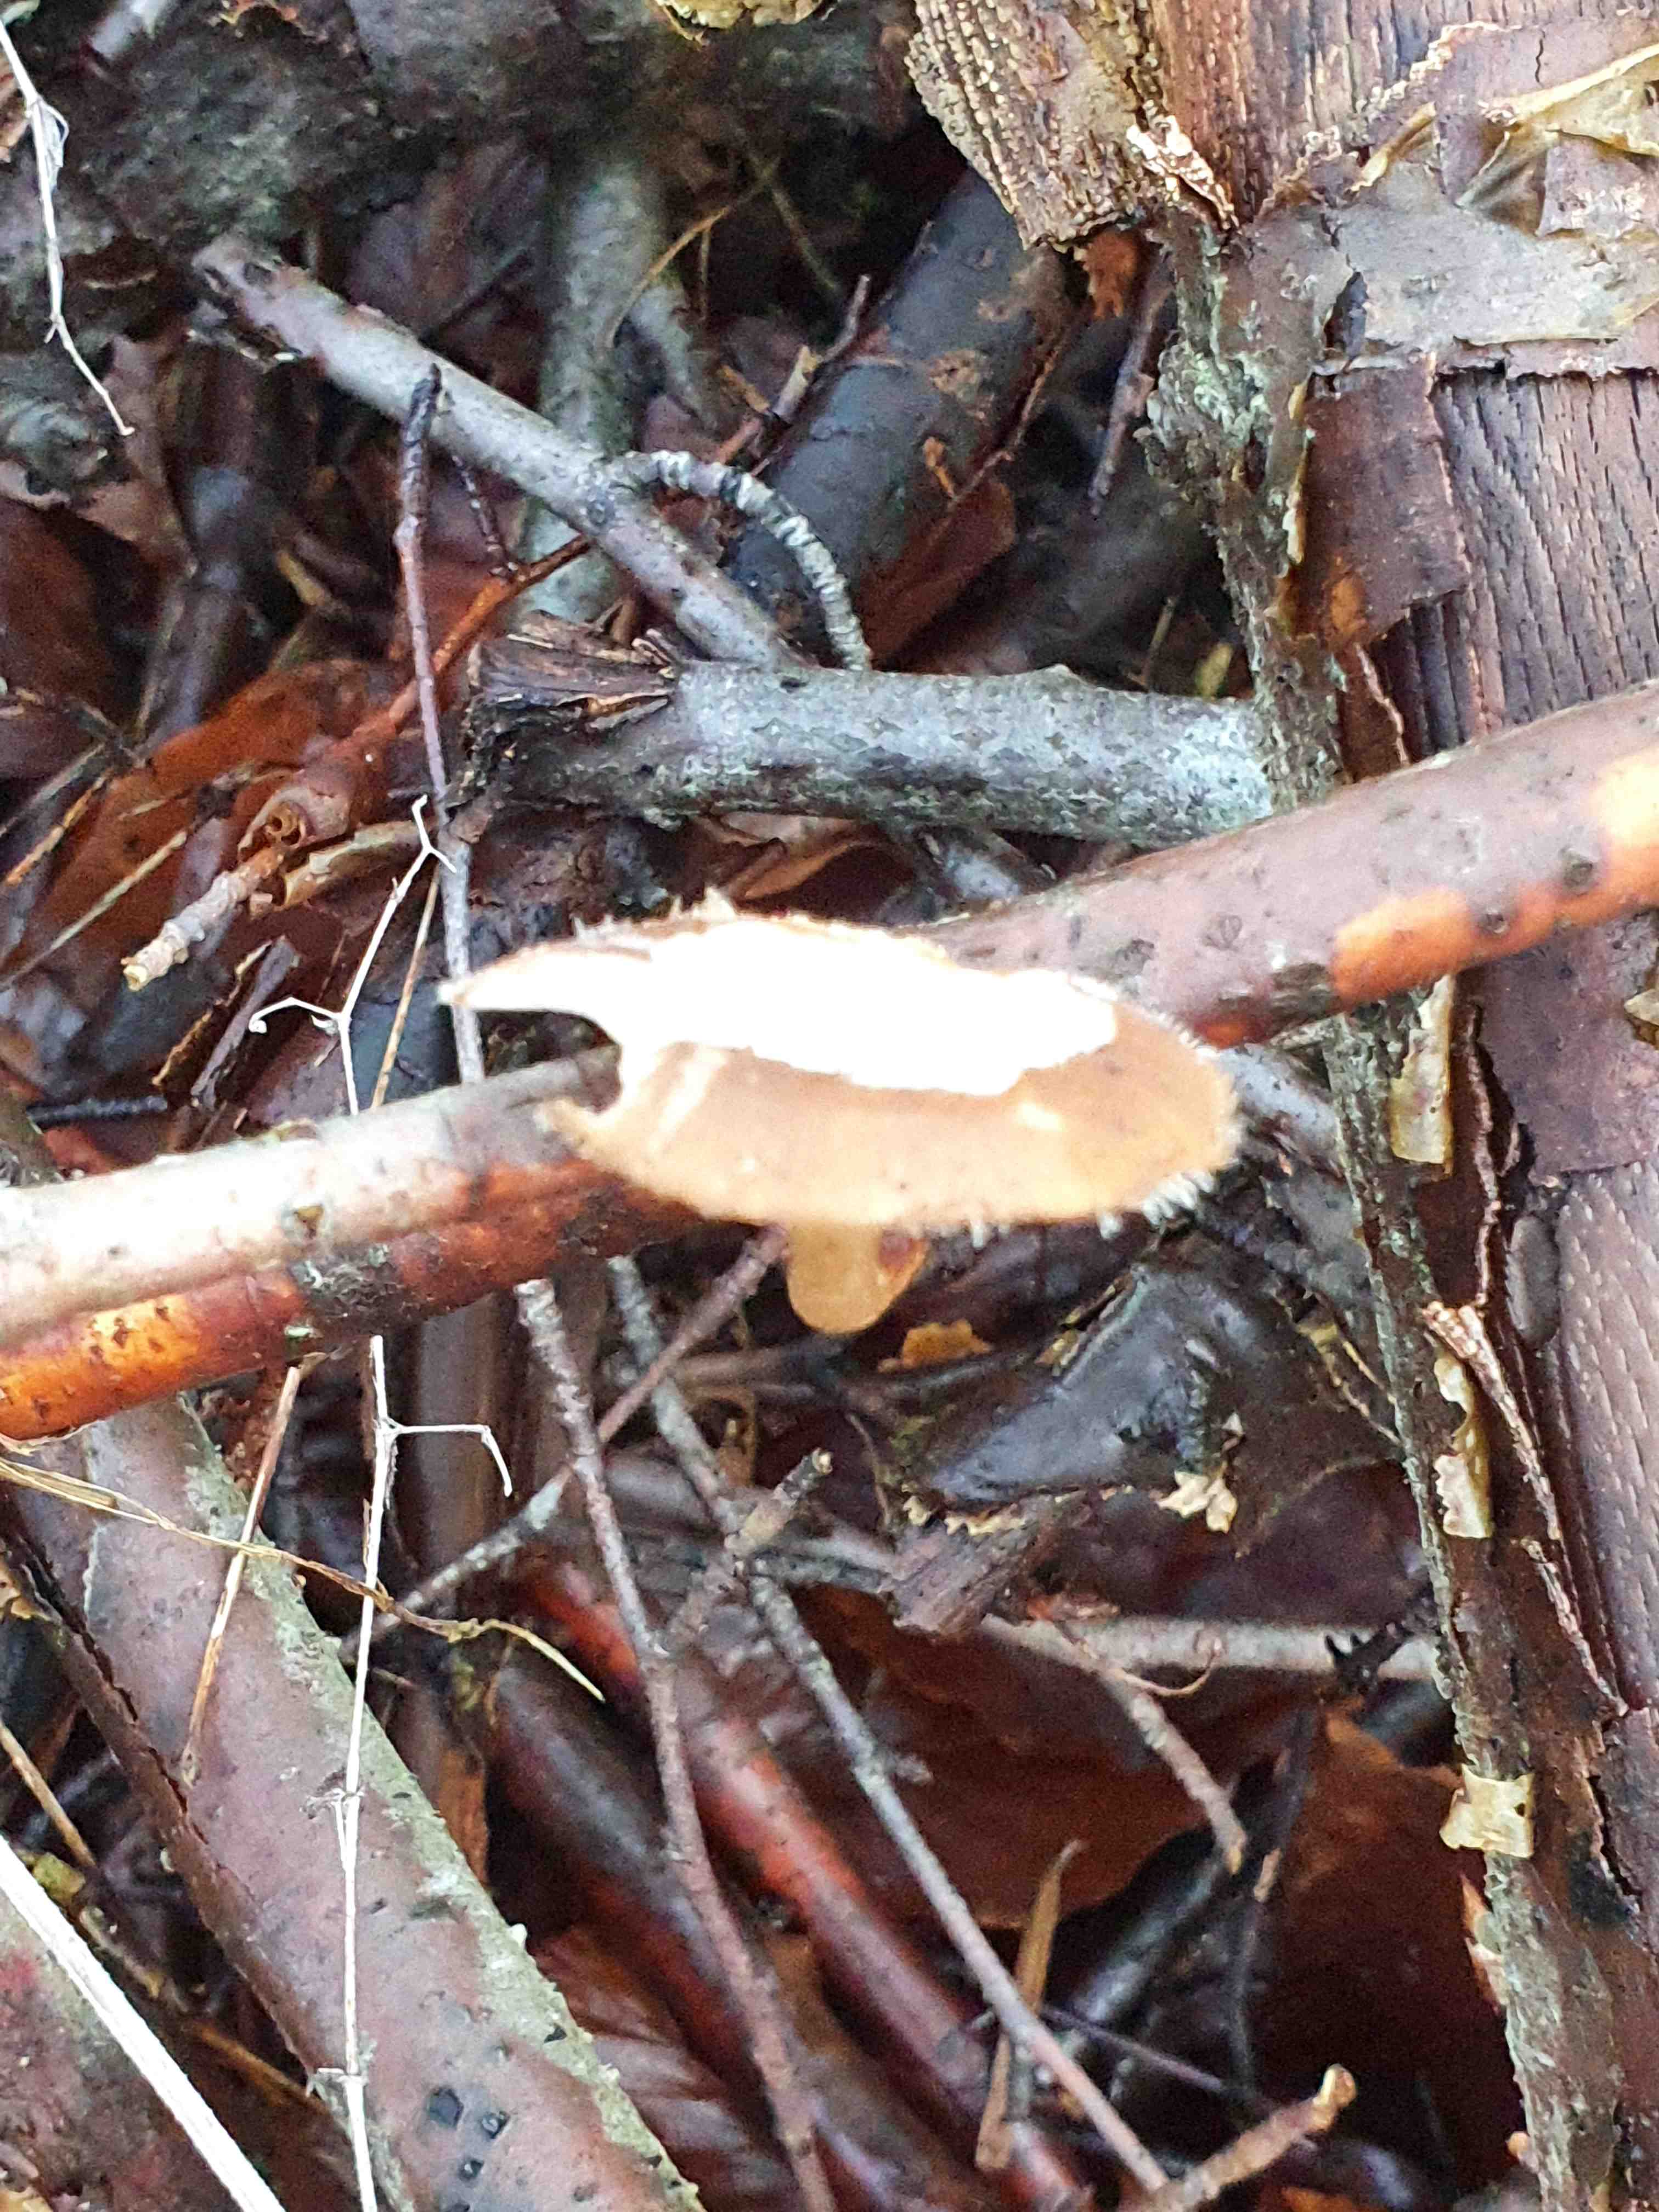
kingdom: Fungi
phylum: Basidiomycota
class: Agaricomycetes
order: Polyporales
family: Polyporaceae
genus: Lentinus
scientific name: Lentinus brumalis
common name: vinter-stilkporesvamp
